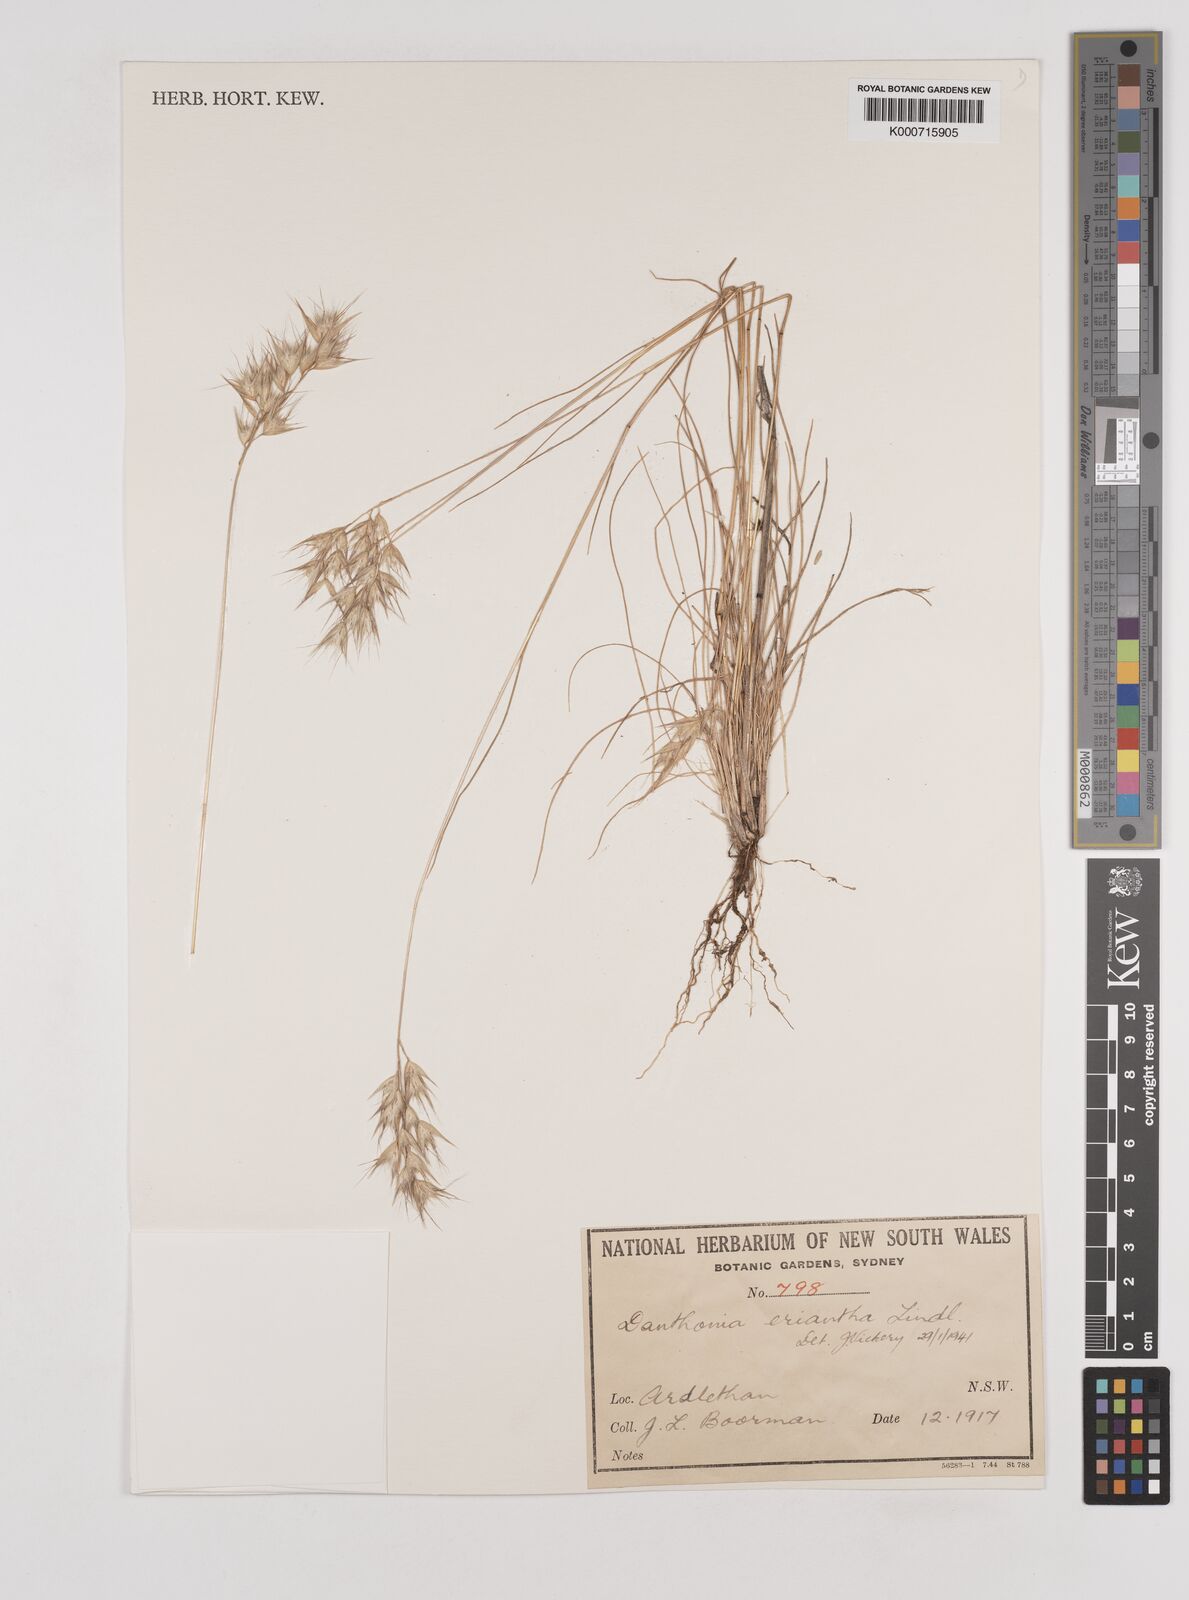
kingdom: Plantae
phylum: Tracheophyta
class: Liliopsida
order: Poales
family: Poaceae
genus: Rytidosperma
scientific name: Rytidosperma erianthum
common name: Hill wallaby grass
